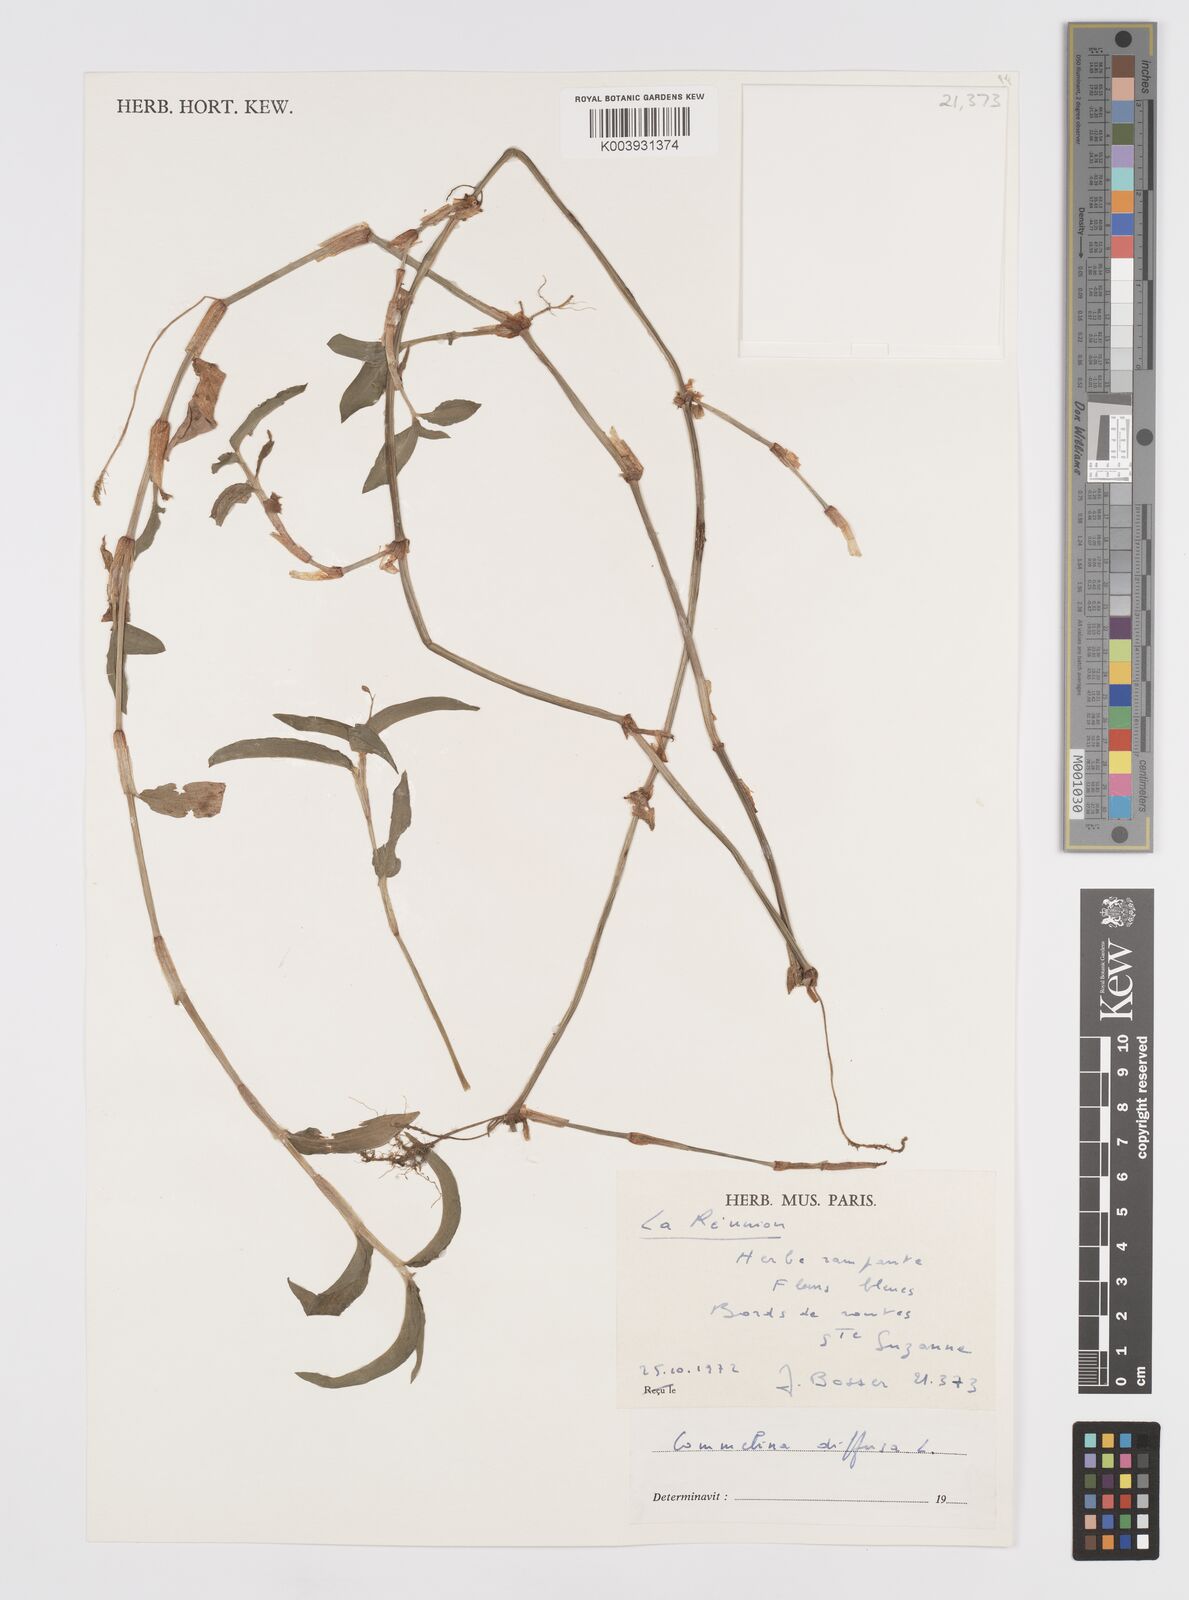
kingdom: Plantae
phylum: Tracheophyta
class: Liliopsida
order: Commelinales
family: Commelinaceae
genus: Murdannia
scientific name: Murdannia nudiflora
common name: Nakedstem dewflower
